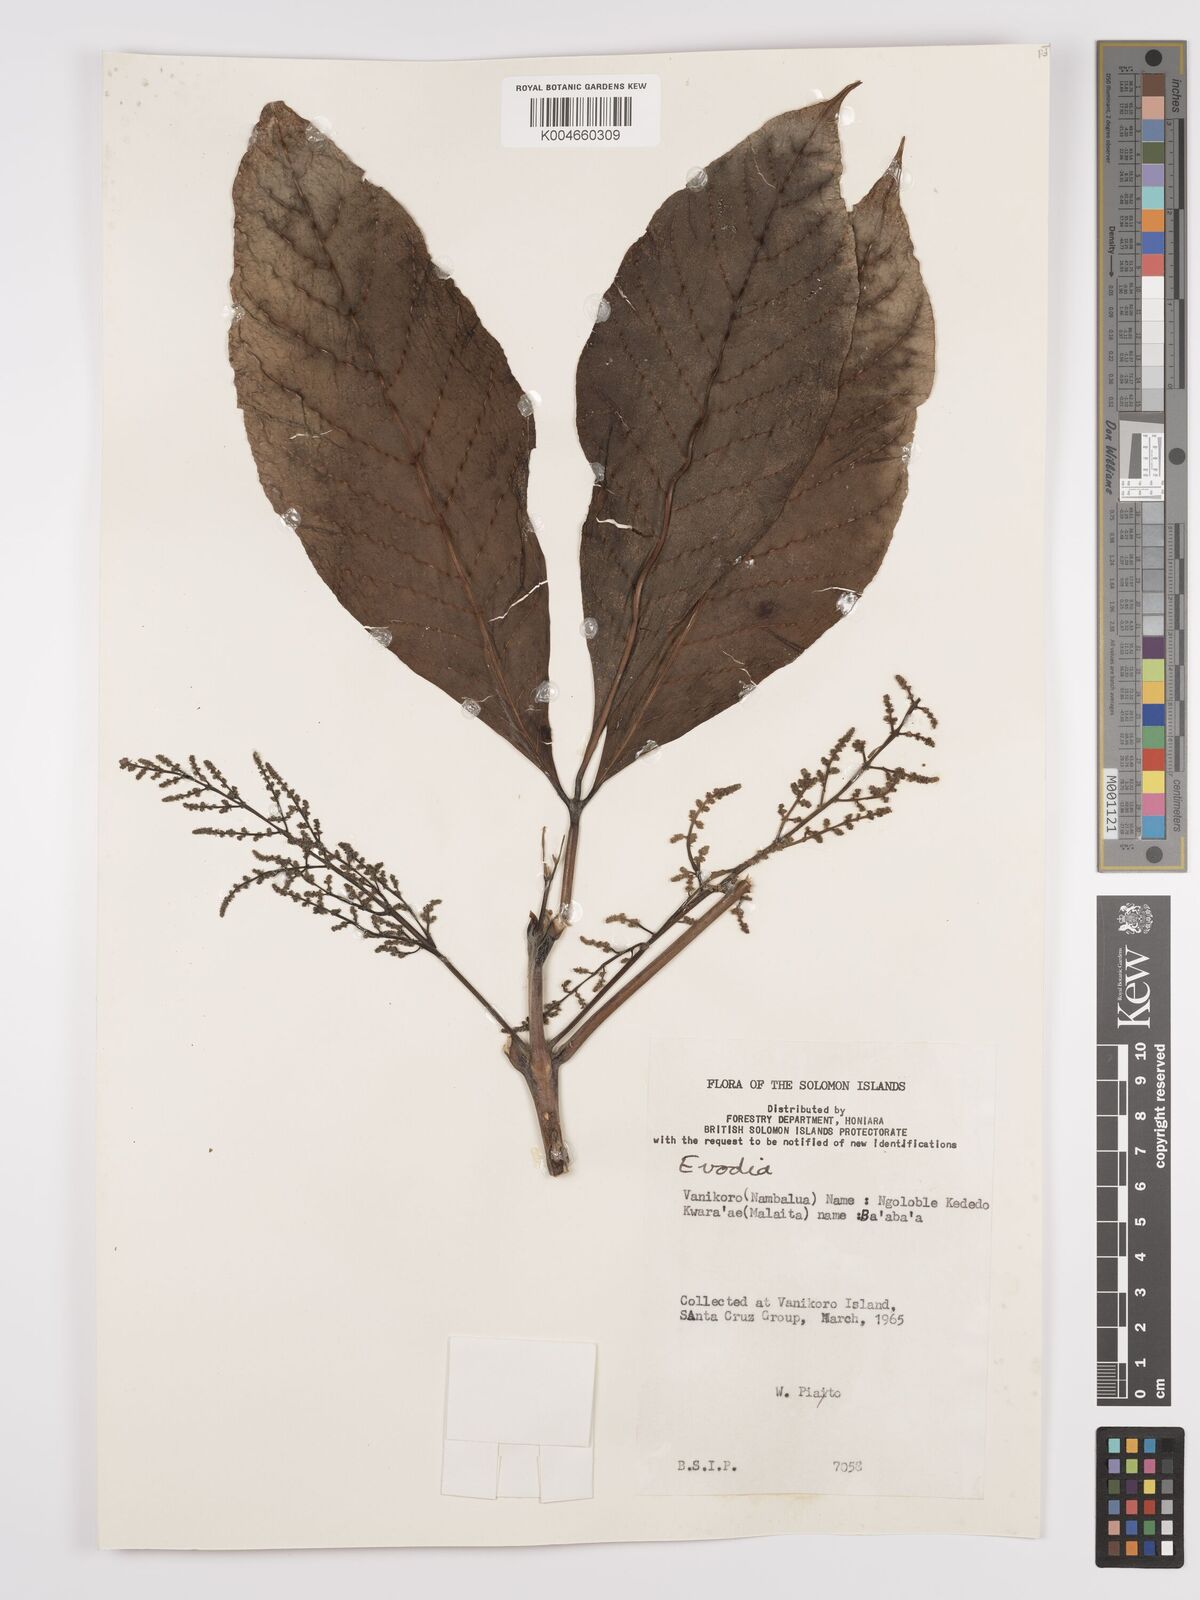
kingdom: Plantae
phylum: Tracheophyta
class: Magnoliopsida
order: Sapindales
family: Rutaceae
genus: Euodia
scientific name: Euodia
